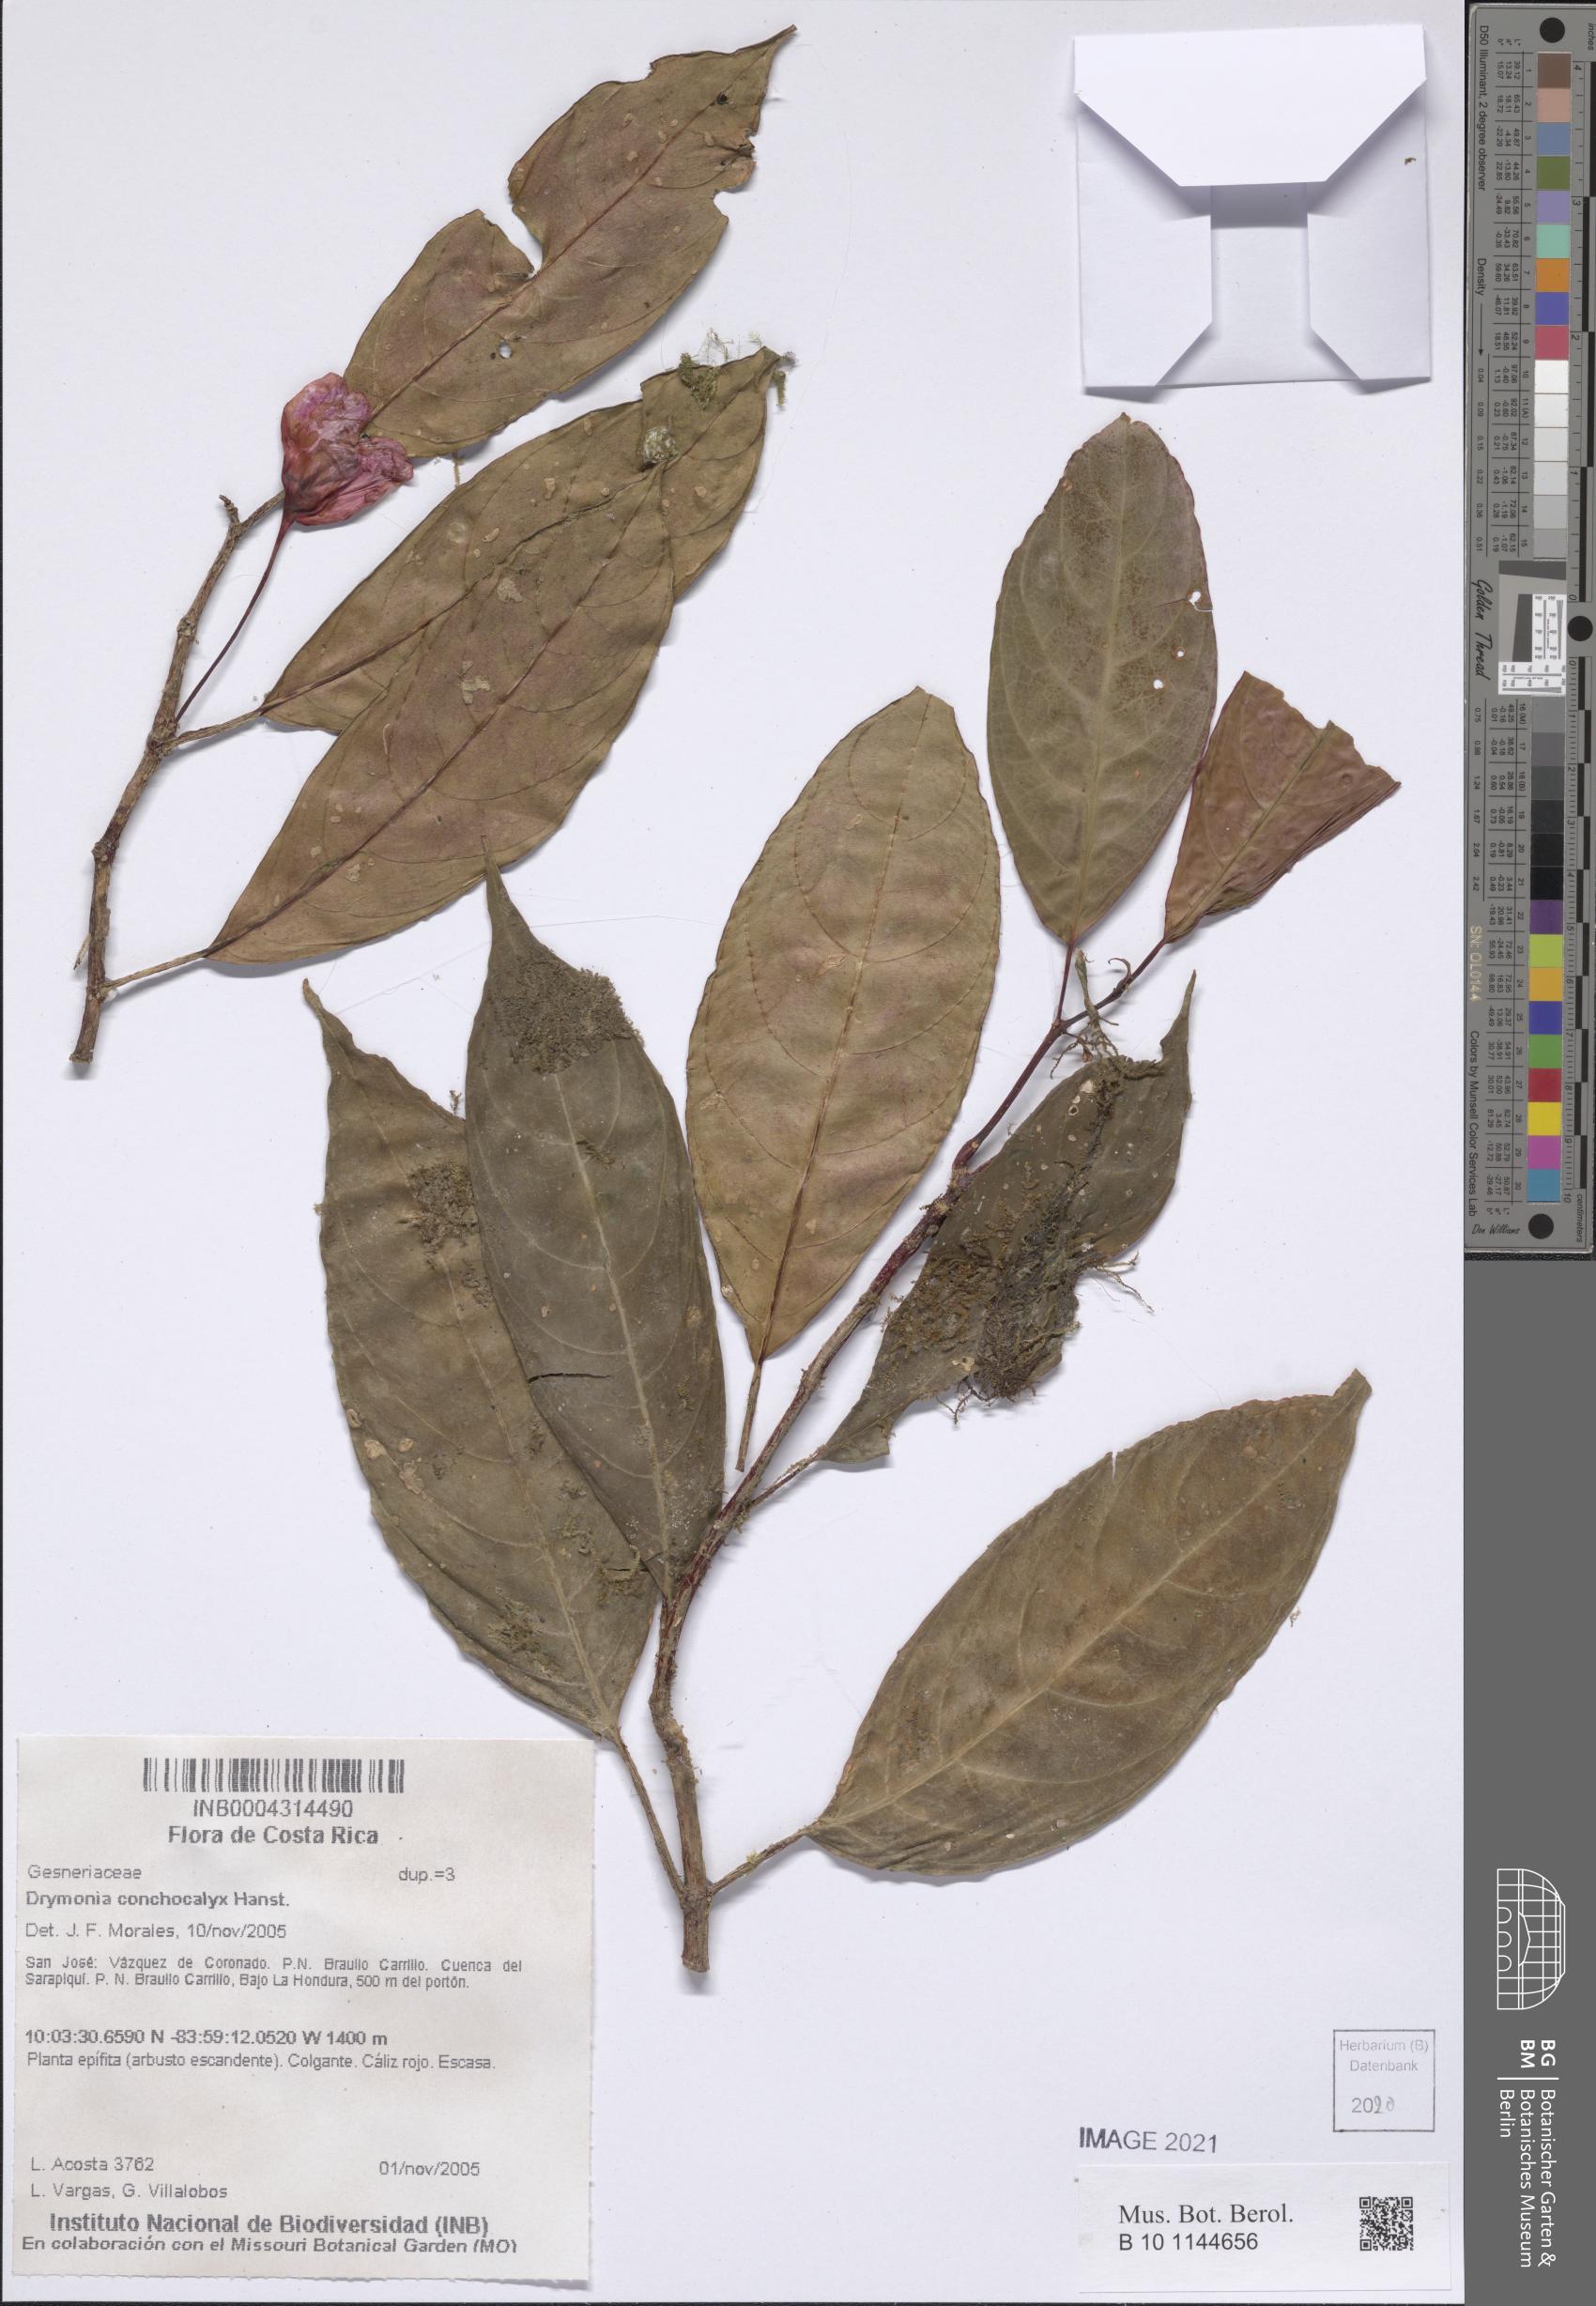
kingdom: Plantae
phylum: Tracheophyta
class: Magnoliopsida
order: Lamiales
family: Gesneriaceae
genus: Drymonia
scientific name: Drymonia conchocalyx
